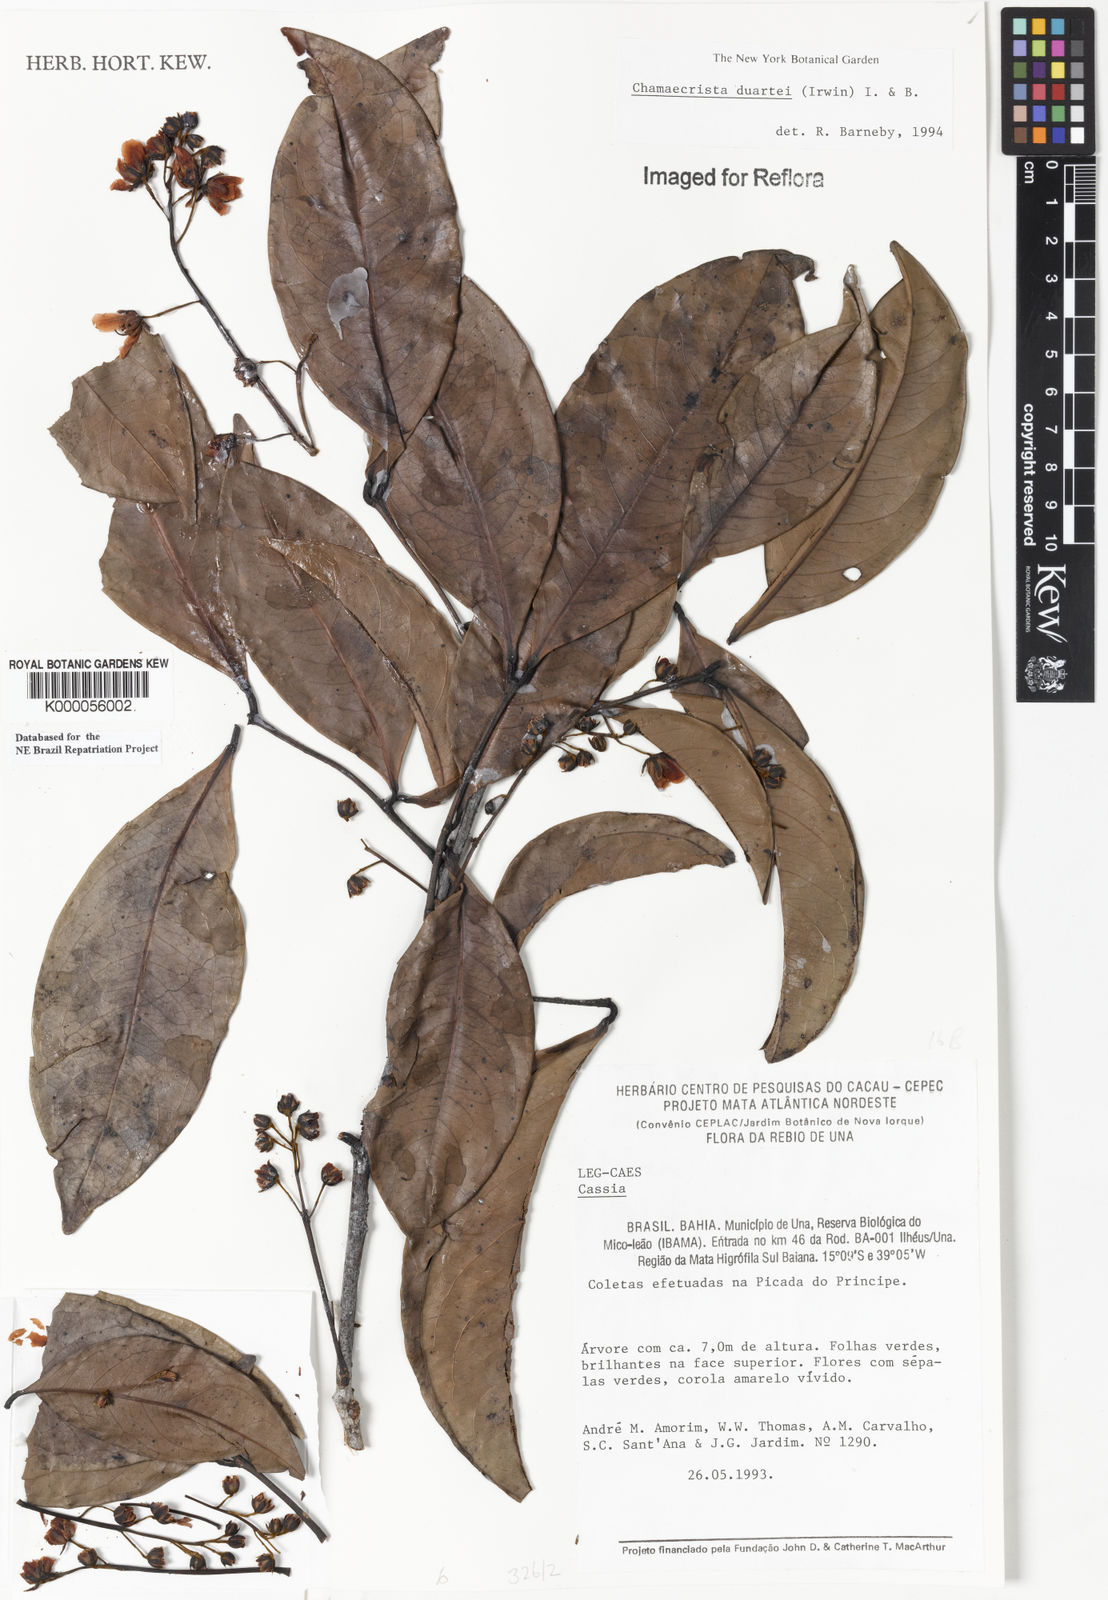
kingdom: Plantae
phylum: Tracheophyta
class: Magnoliopsida
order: Fabales
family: Fabaceae
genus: Chamaecrista
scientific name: Chamaecrista duartei
